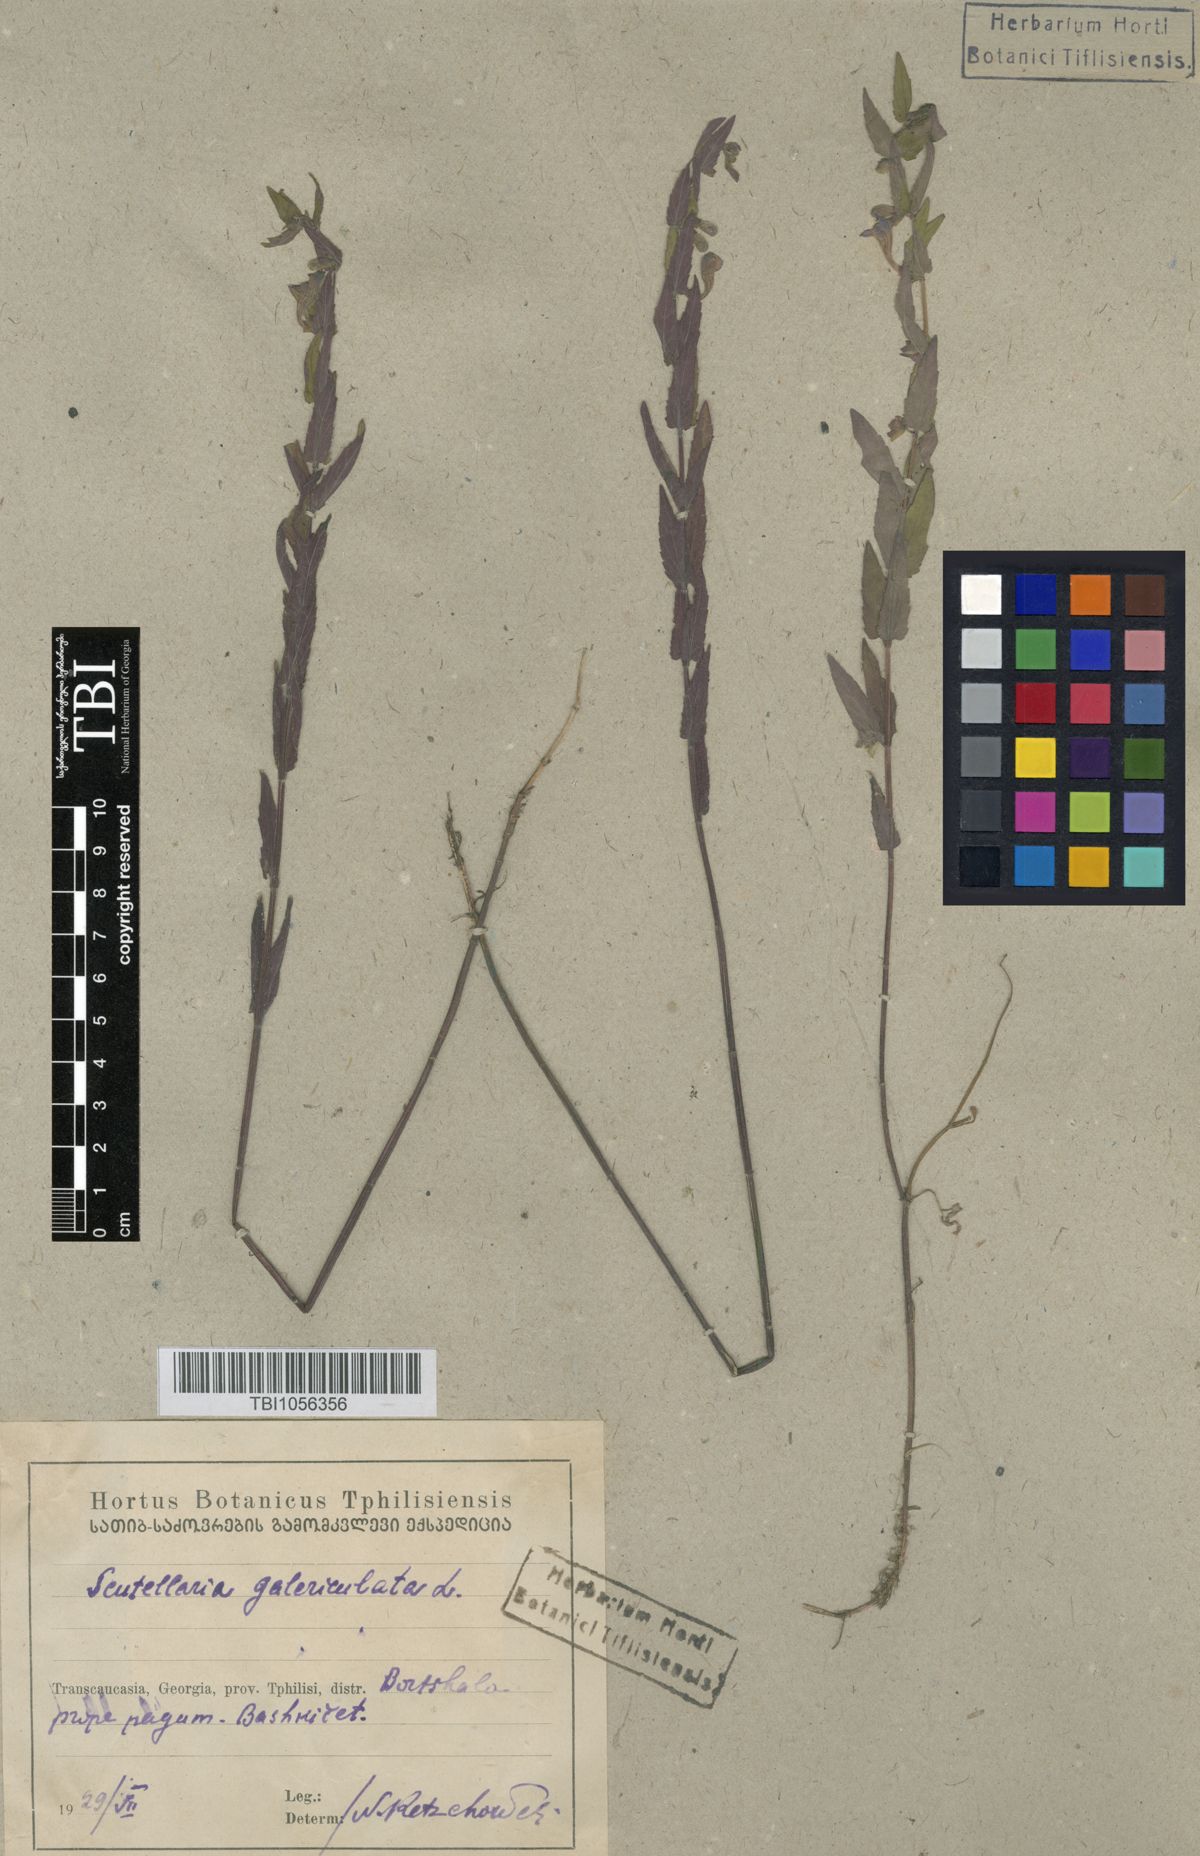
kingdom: Plantae
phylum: Tracheophyta
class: Magnoliopsida
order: Lamiales
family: Lamiaceae
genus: Scutellaria
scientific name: Scutellaria galericulata
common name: Skullcap
